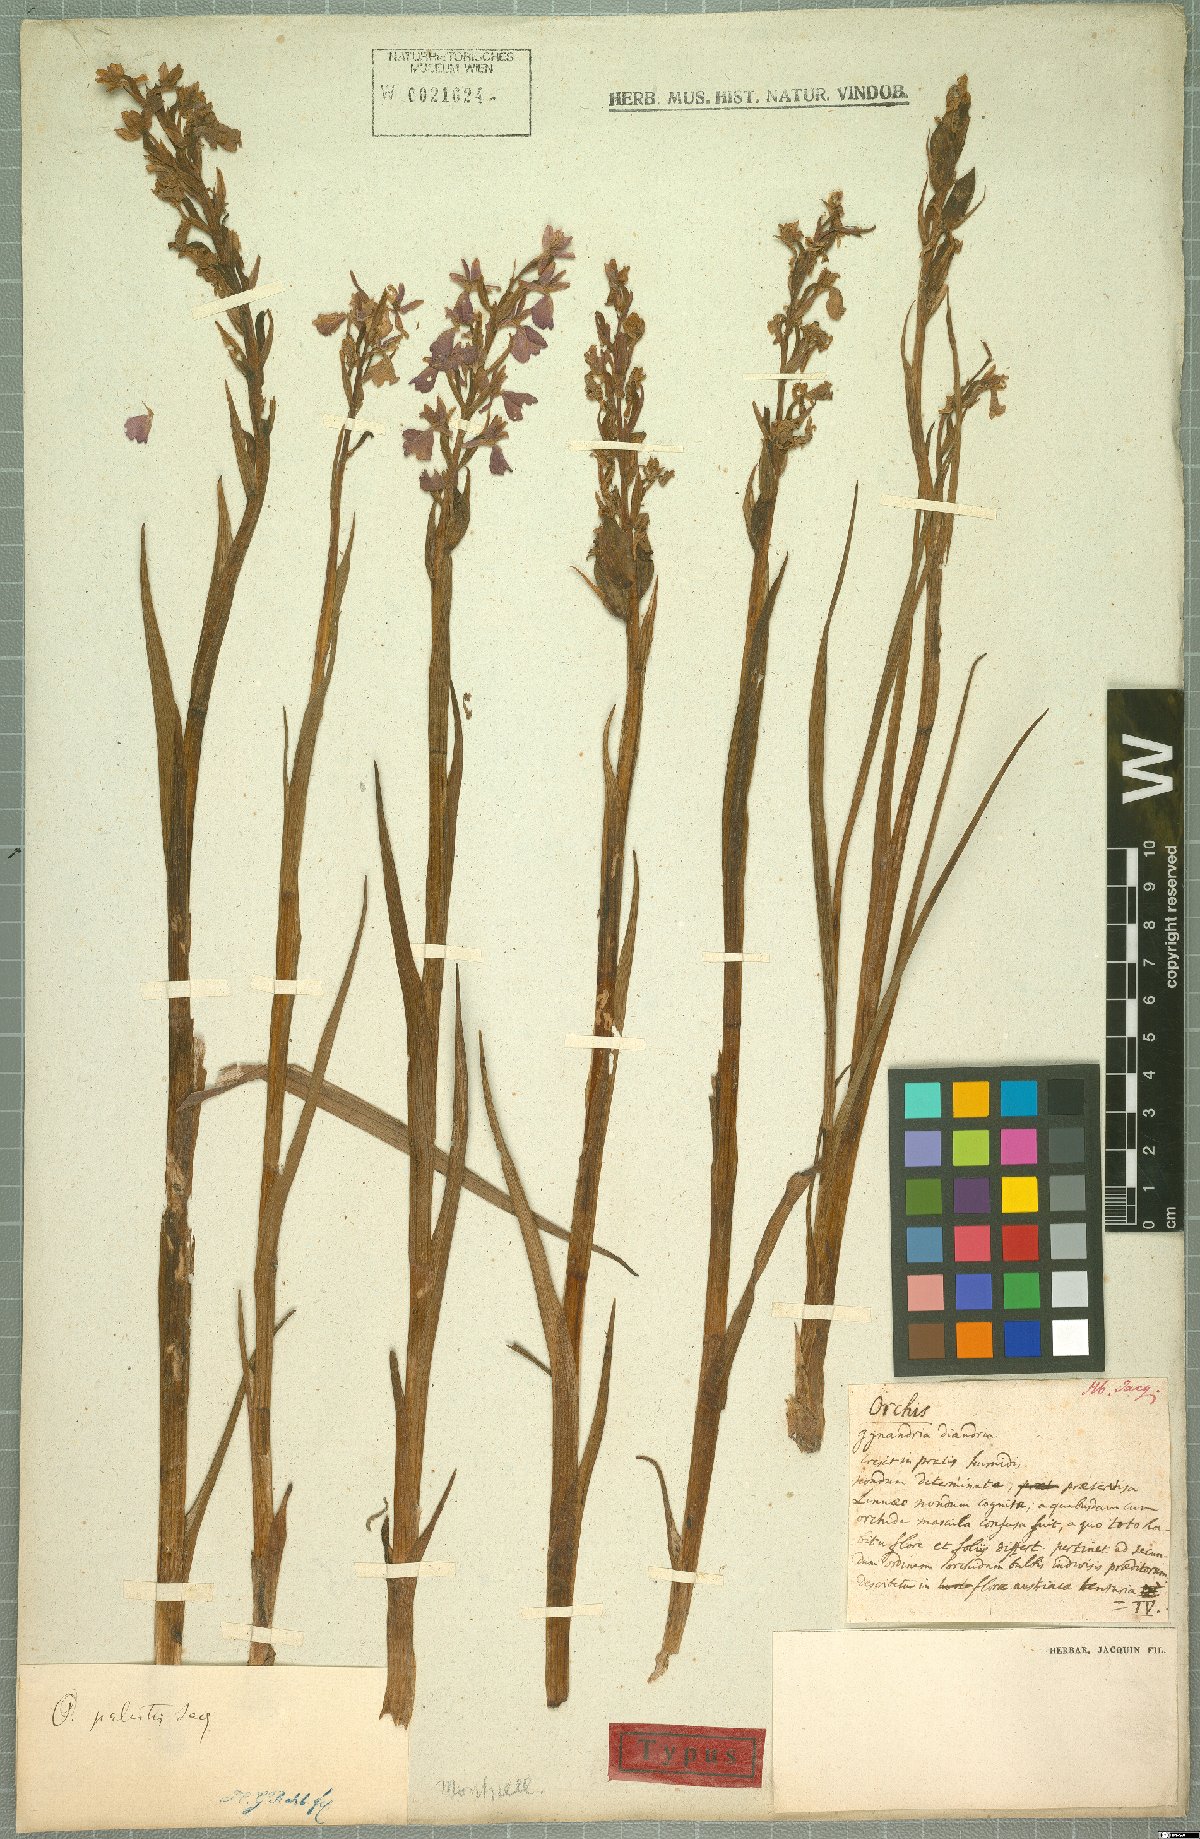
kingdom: Plantae
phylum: Tracheophyta
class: Liliopsida
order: Asparagales
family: Orchidaceae
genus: Anacamptis
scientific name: Anacamptis palustris
